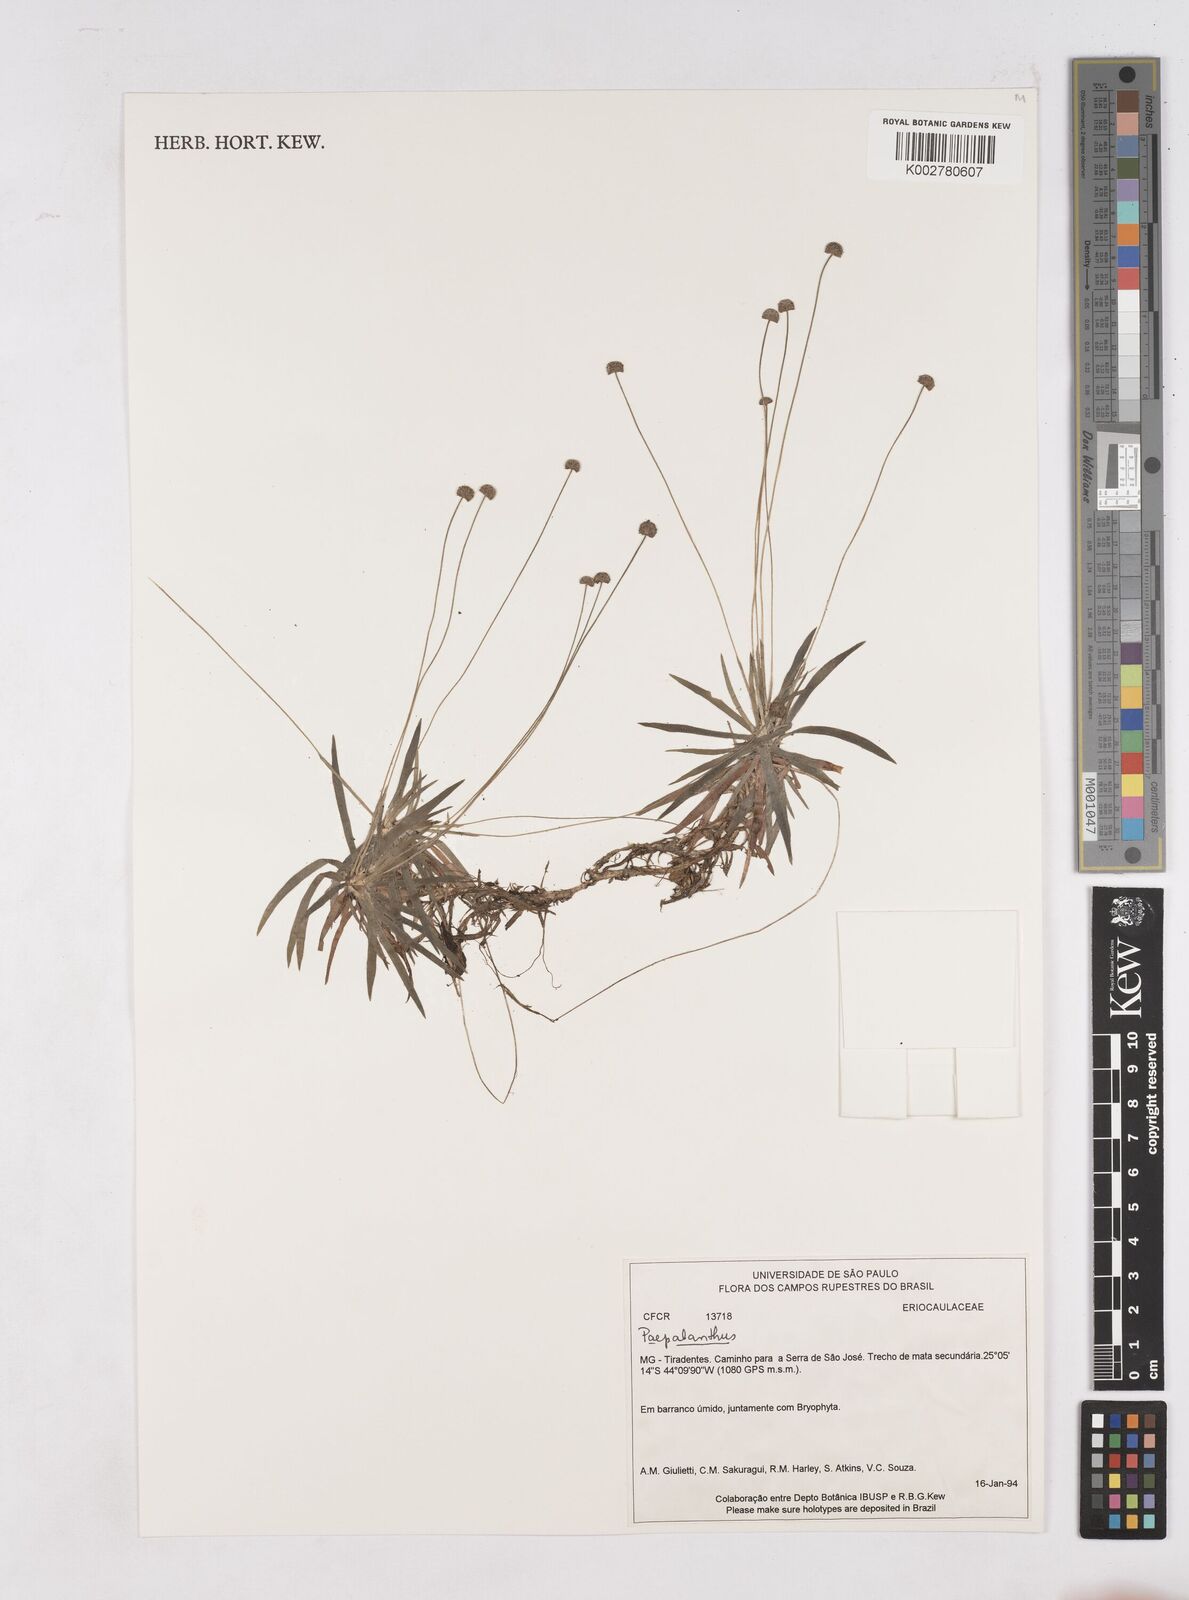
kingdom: Plantae
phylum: Tracheophyta
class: Liliopsida
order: Poales
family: Eriocaulaceae
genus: Paepalanthus
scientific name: Paepalanthus
